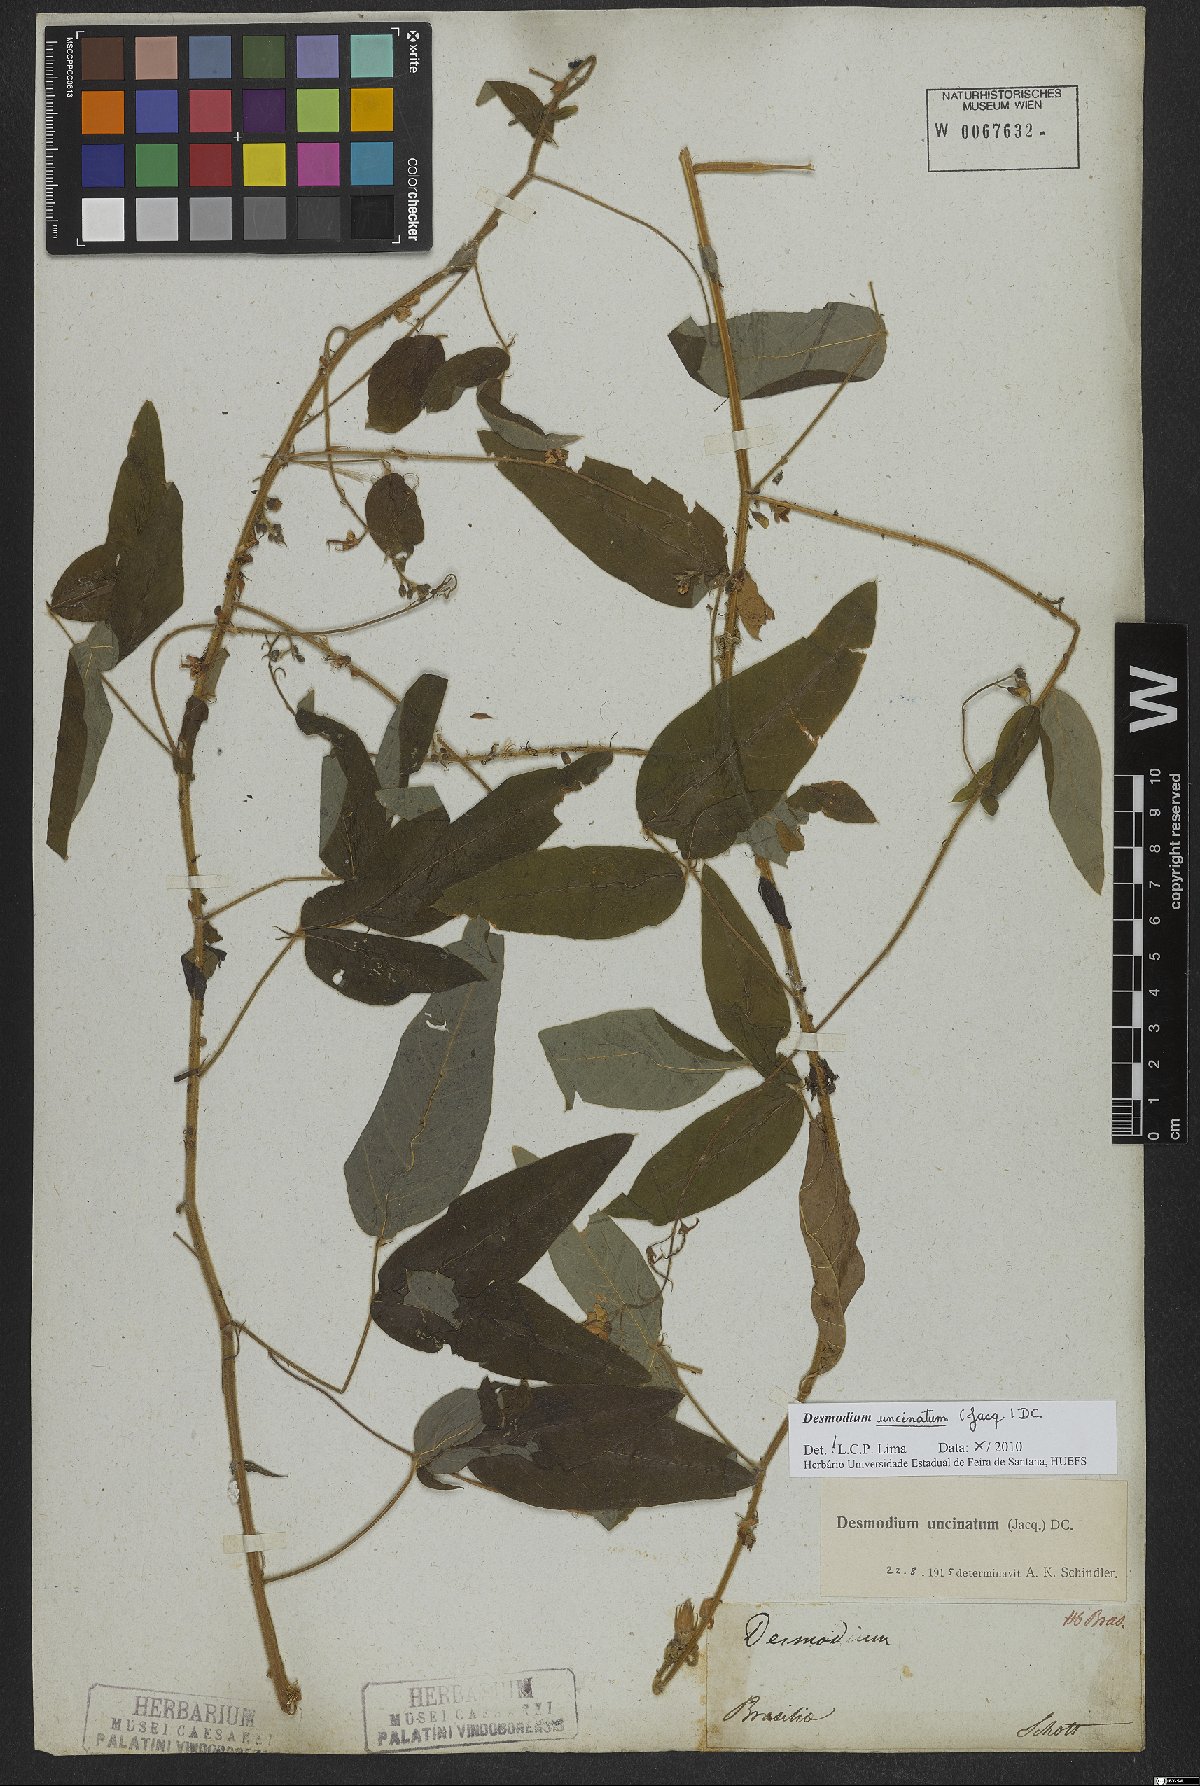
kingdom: Plantae
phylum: Tracheophyta
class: Magnoliopsida
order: Fabales
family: Fabaceae
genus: Desmodium
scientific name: Desmodium uncinatum
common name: Silverleaf desmodium
